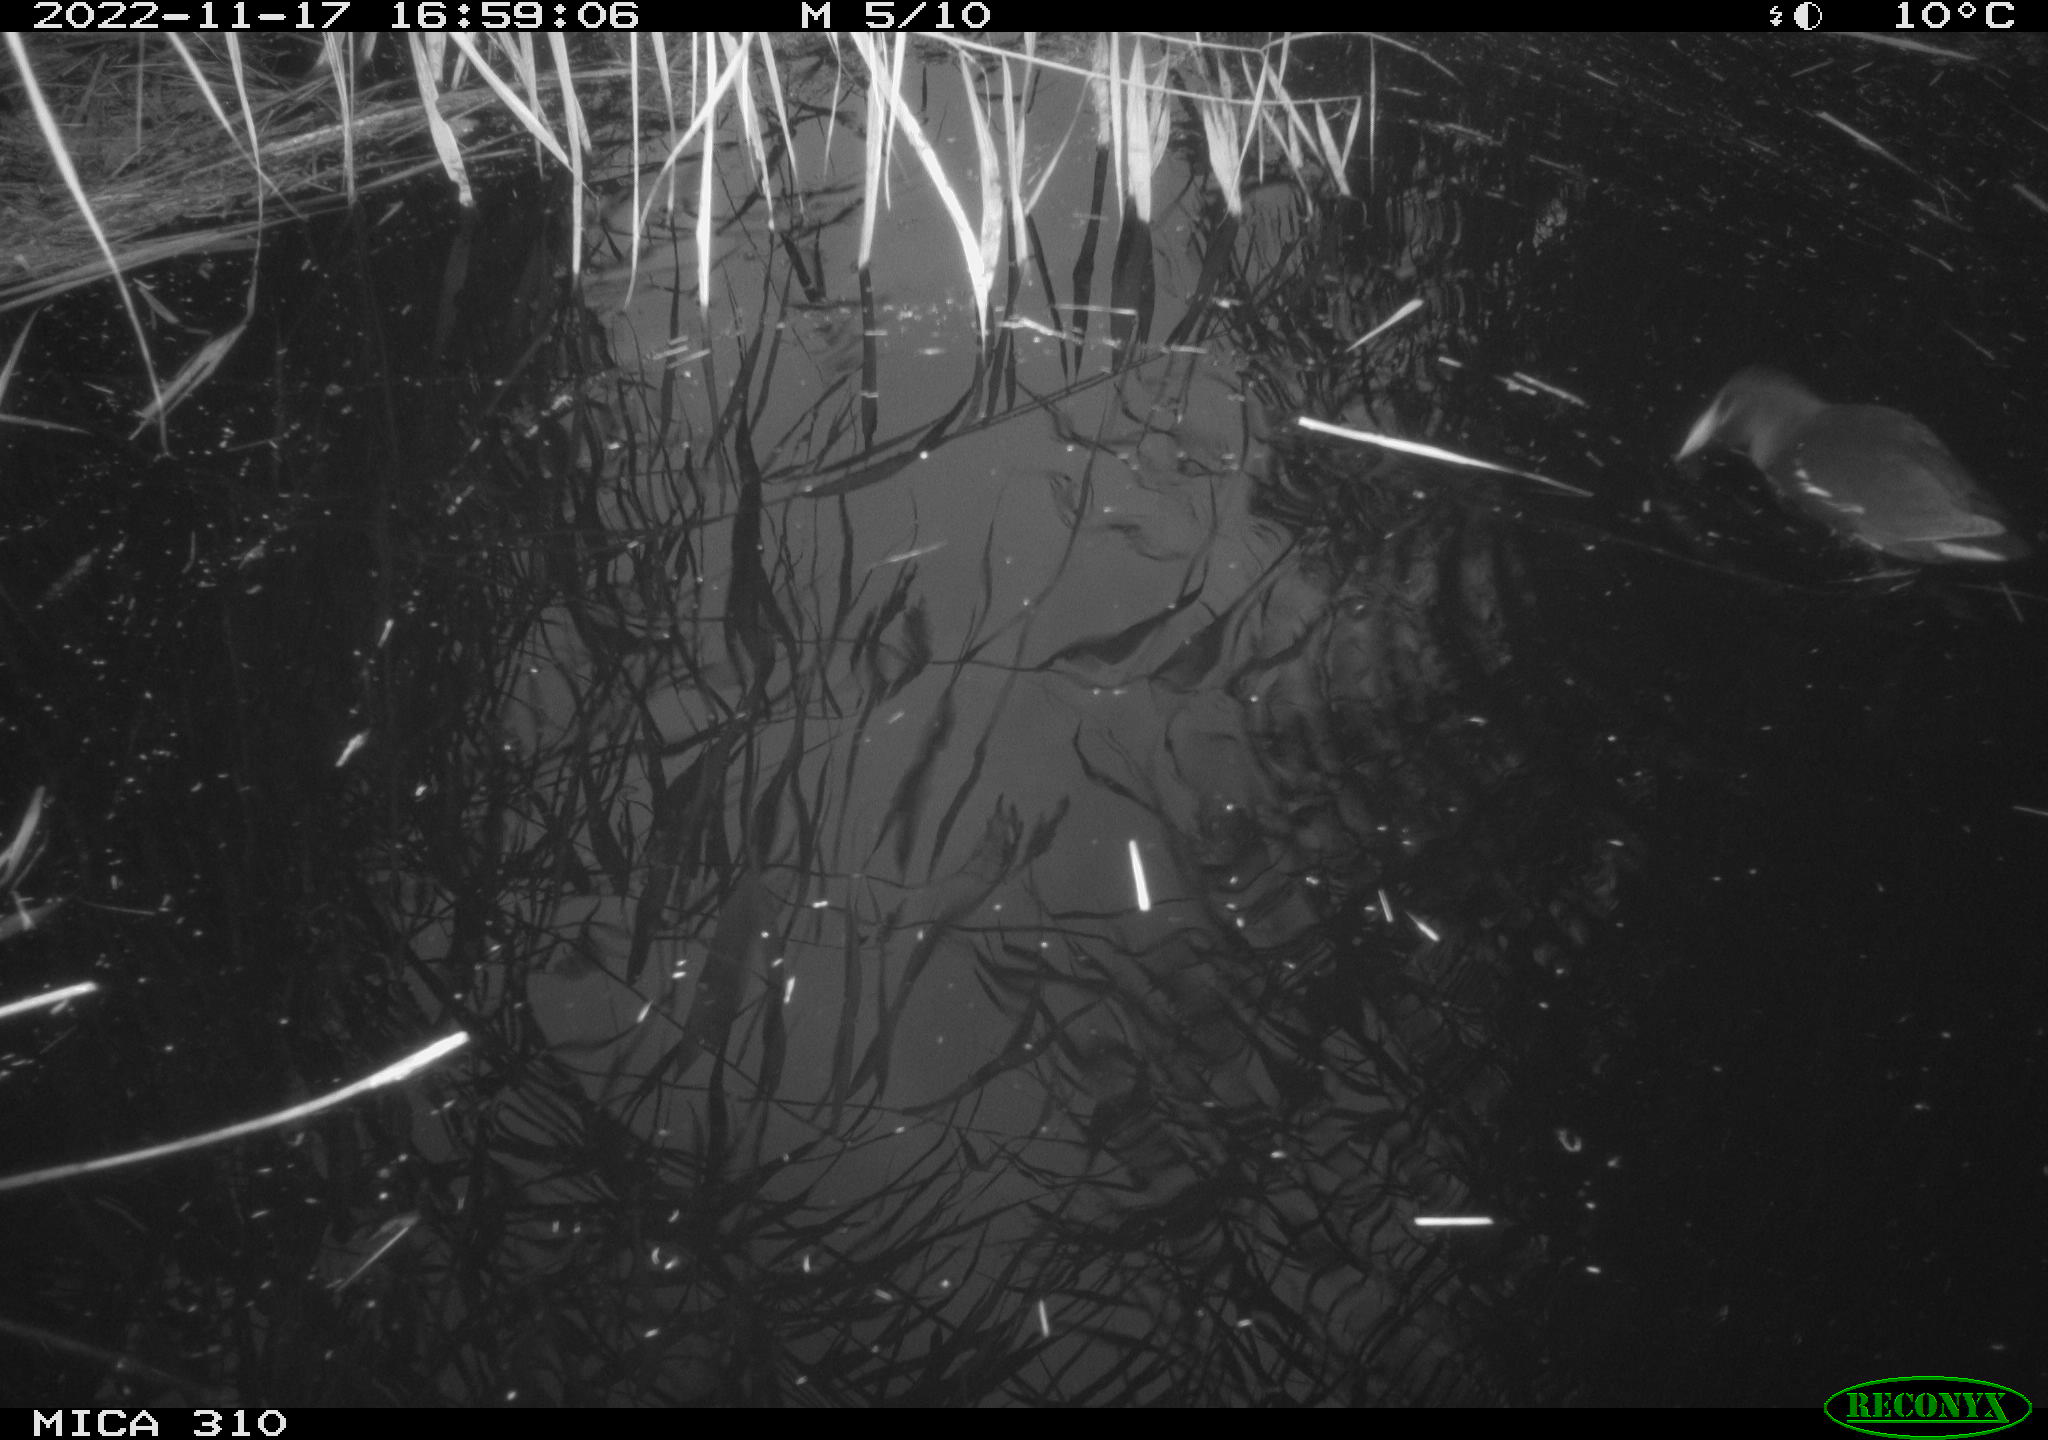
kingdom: Animalia
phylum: Chordata
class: Aves
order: Gruiformes
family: Rallidae
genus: Gallinula
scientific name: Gallinula chloropus
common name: Common moorhen
